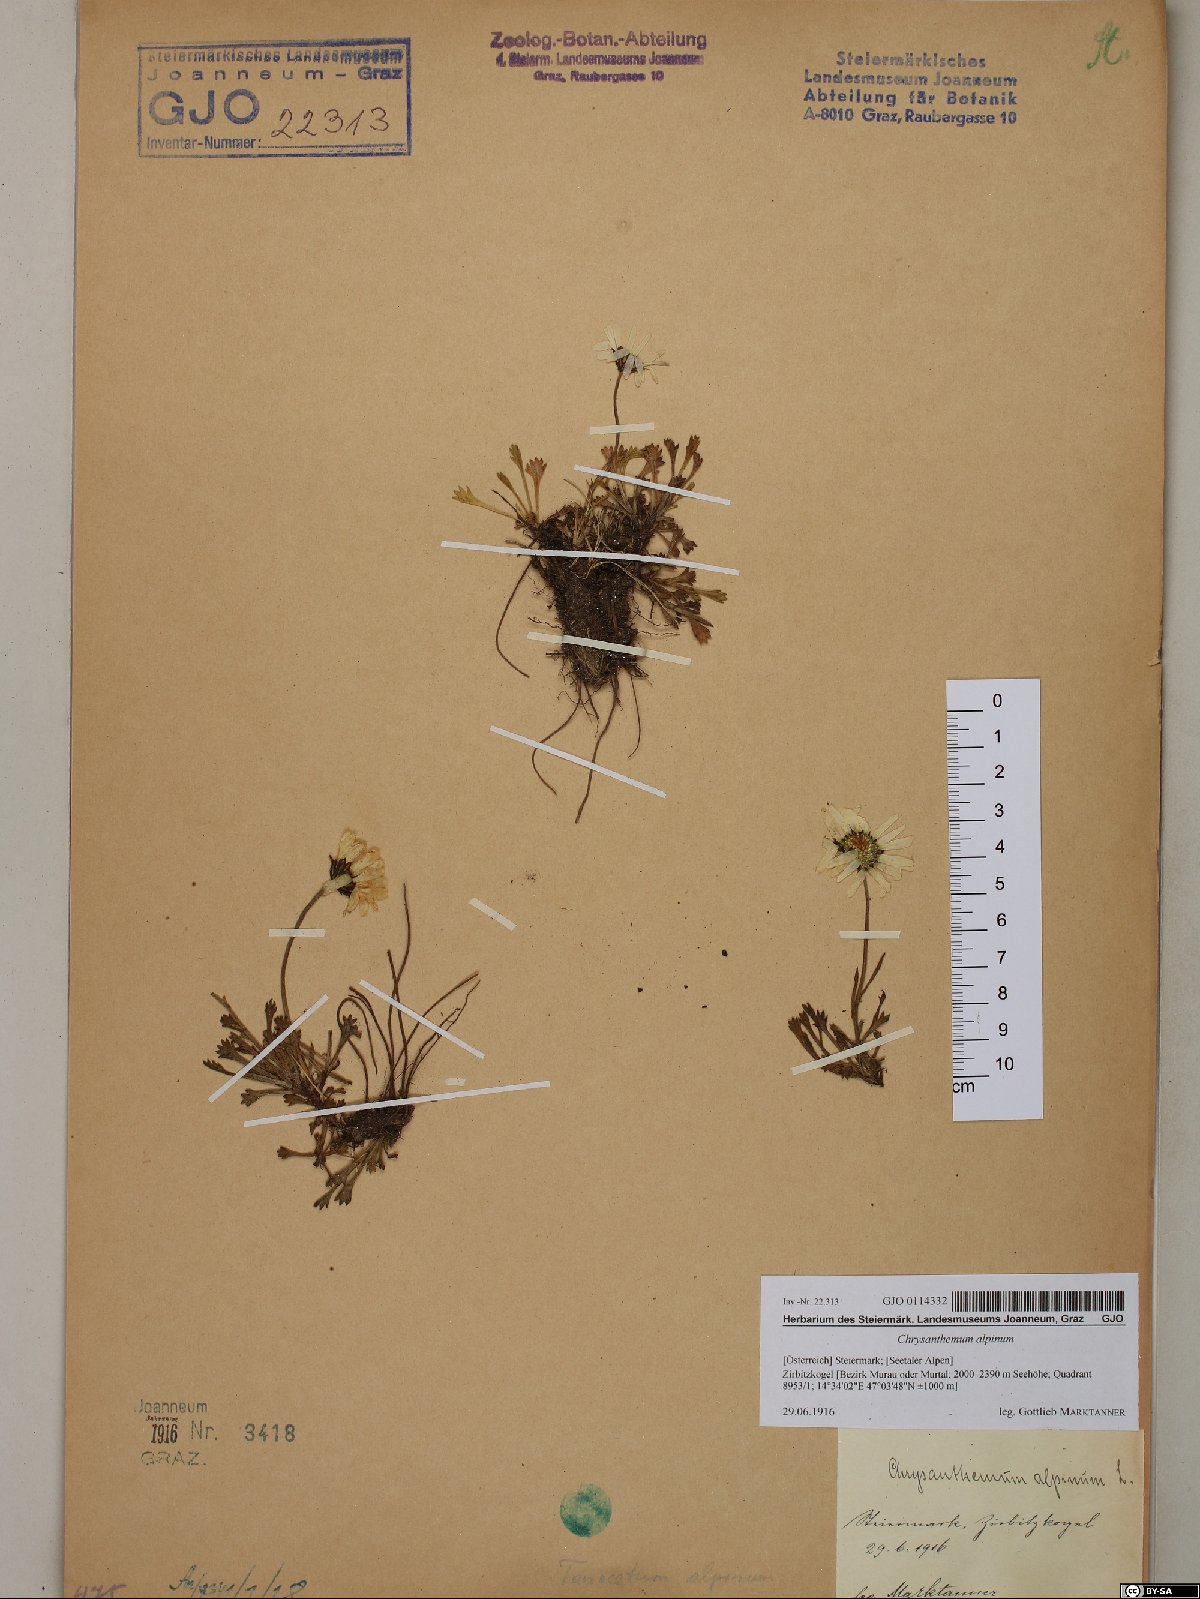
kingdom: Plantae
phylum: Tracheophyta
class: Magnoliopsida
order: Asterales
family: Asteraceae
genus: Leucanthemopsis
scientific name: Leucanthemopsis alpina
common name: Alpine moon daisy
